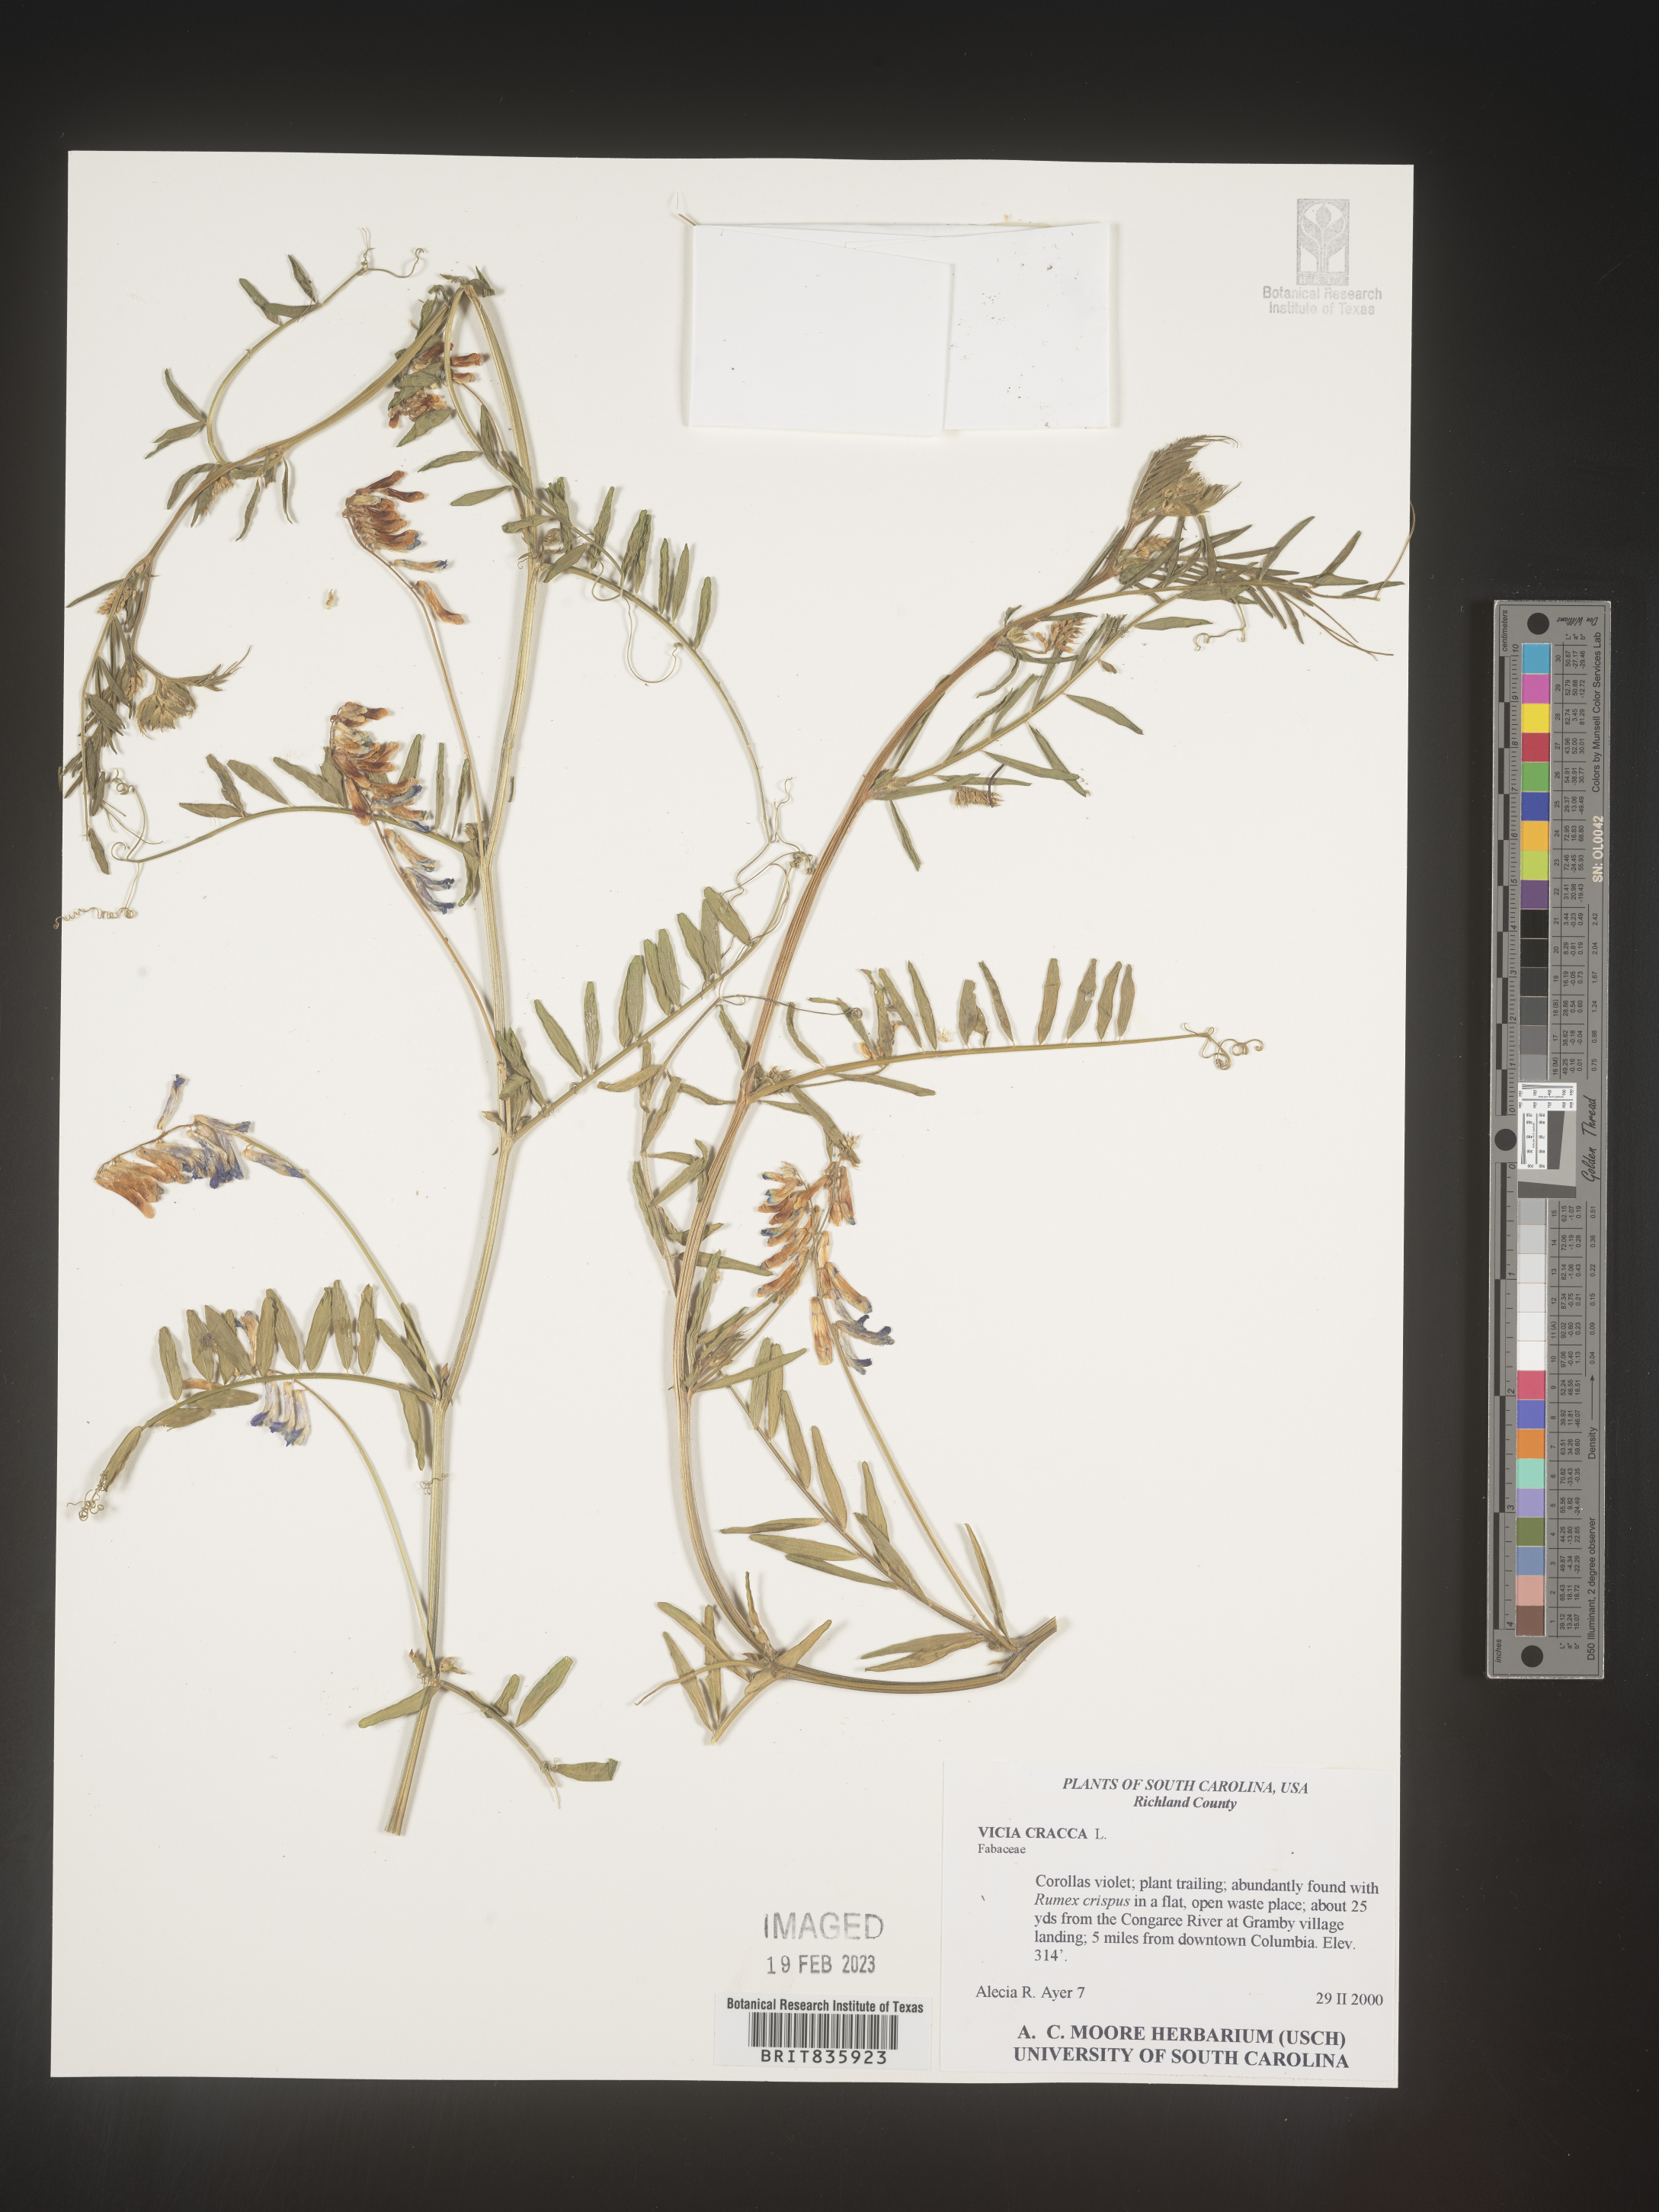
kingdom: Plantae
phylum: Tracheophyta
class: Magnoliopsida
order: Fabales
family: Fabaceae
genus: Vicia
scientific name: Vicia cracca
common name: Bird vetch
